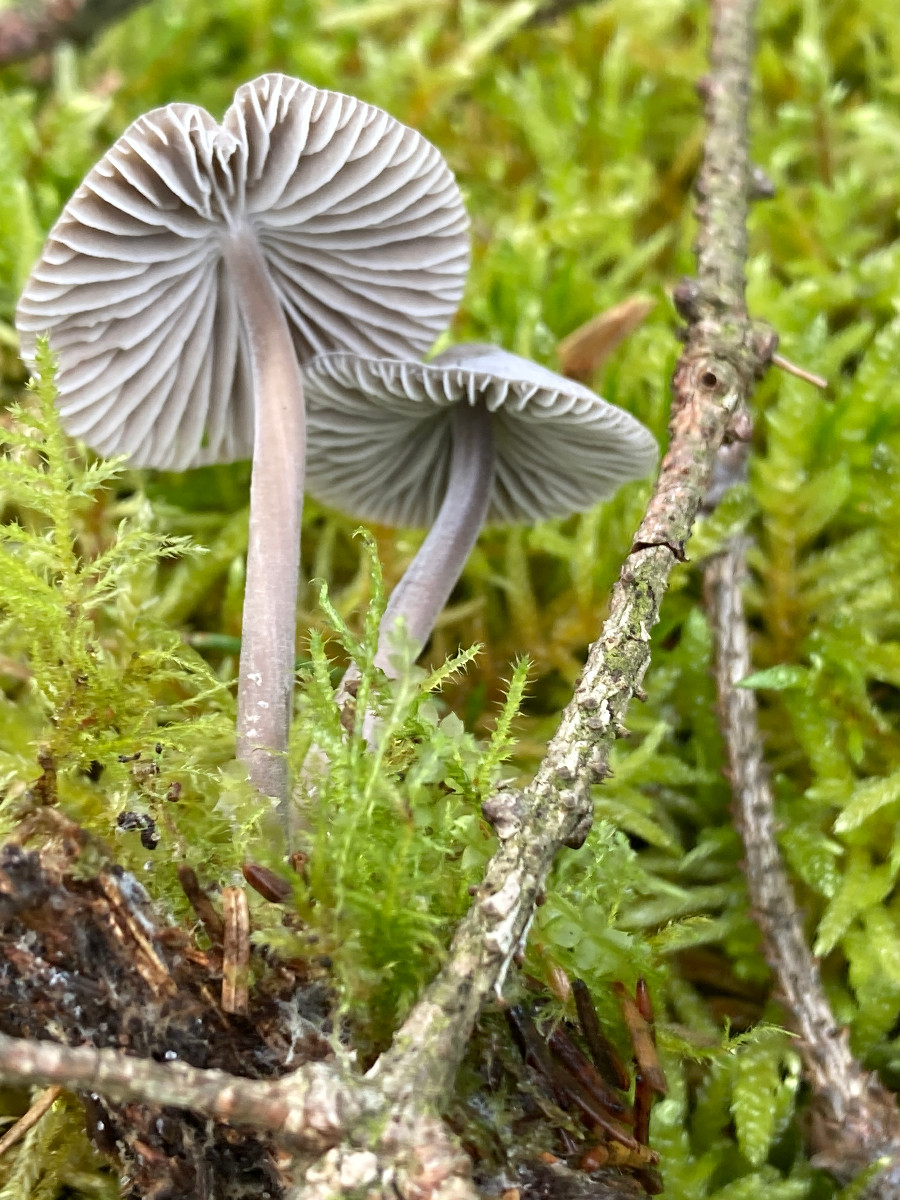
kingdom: Fungi
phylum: Basidiomycota
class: Agaricomycetes
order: Agaricales
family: Mycenaceae
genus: Mycena
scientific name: Mycena
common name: huesvamp
